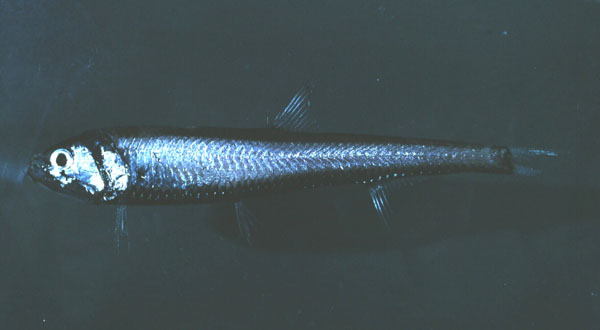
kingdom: Animalia
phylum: Chordata
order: Stomiiformes
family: Gonostomatidae
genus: Sigmops
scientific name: Sigmops bathyphilus
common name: Bristlemouth
